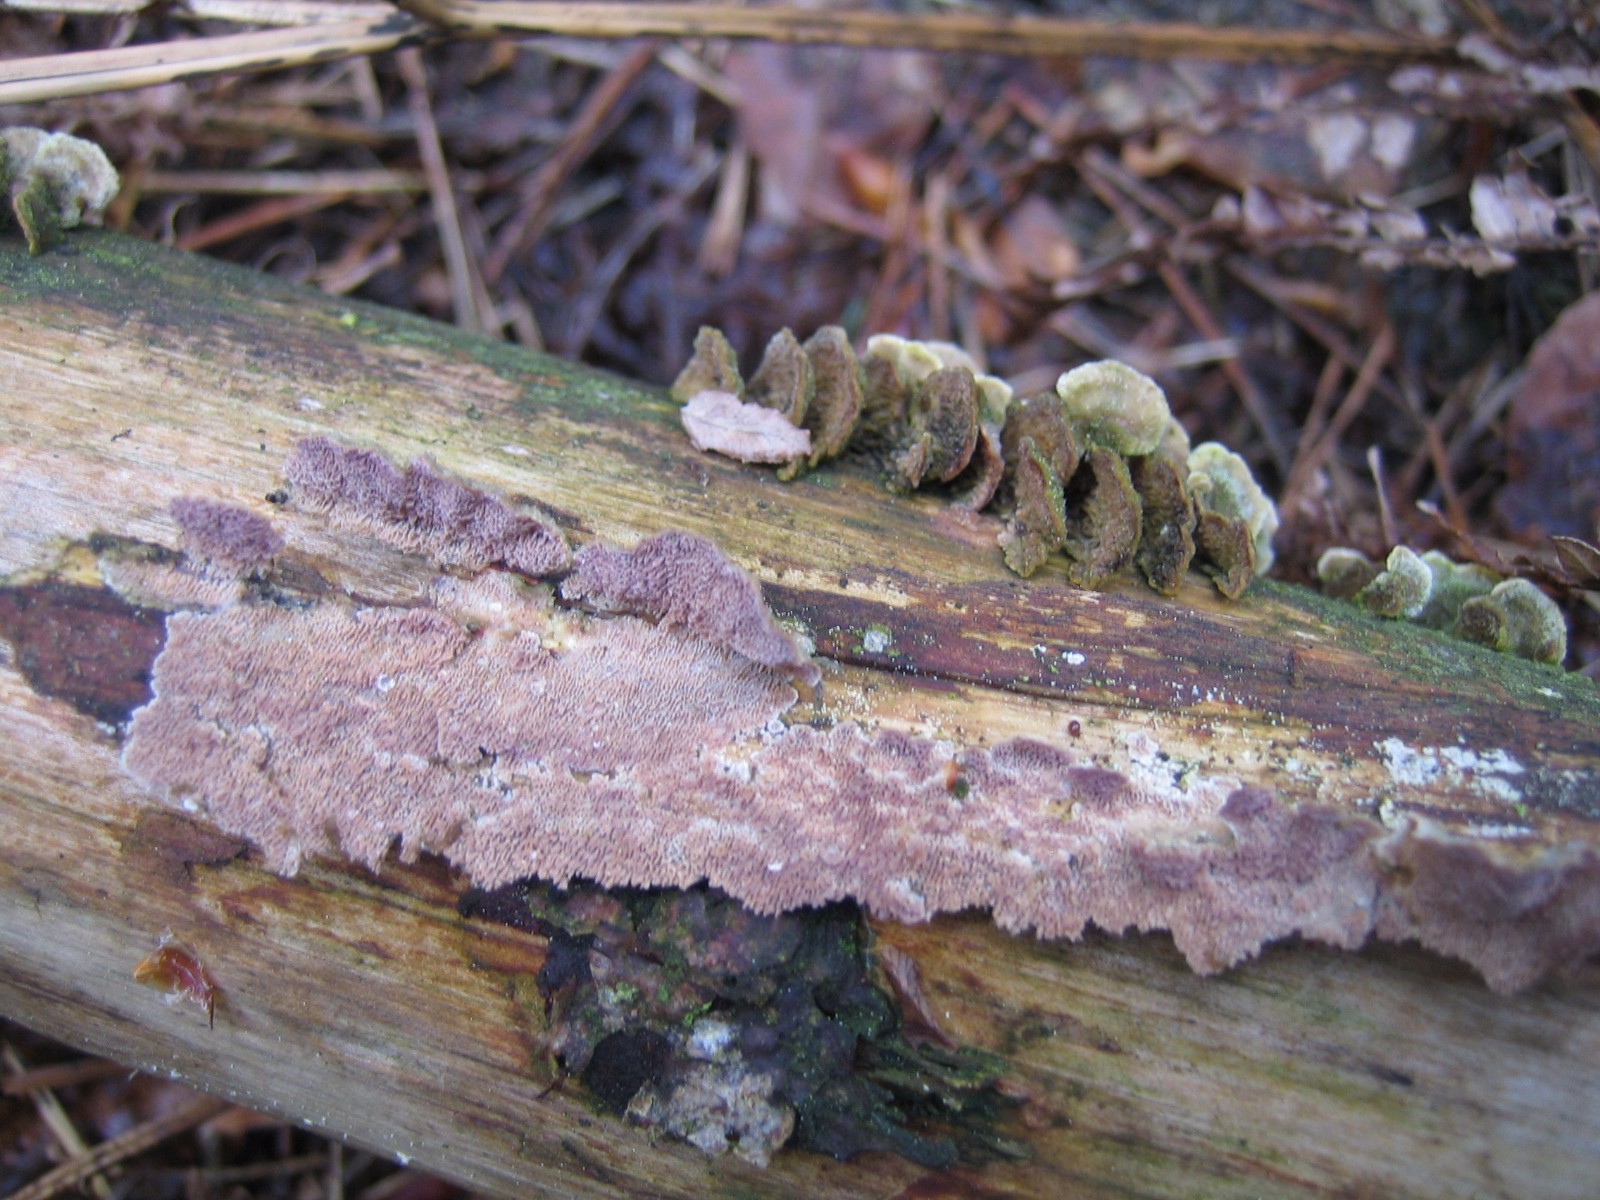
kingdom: Fungi
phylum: Basidiomycota
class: Agaricomycetes
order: Hymenochaetales
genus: Trichaptum
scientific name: Trichaptum abietinum
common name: almindelig violporesvamp
